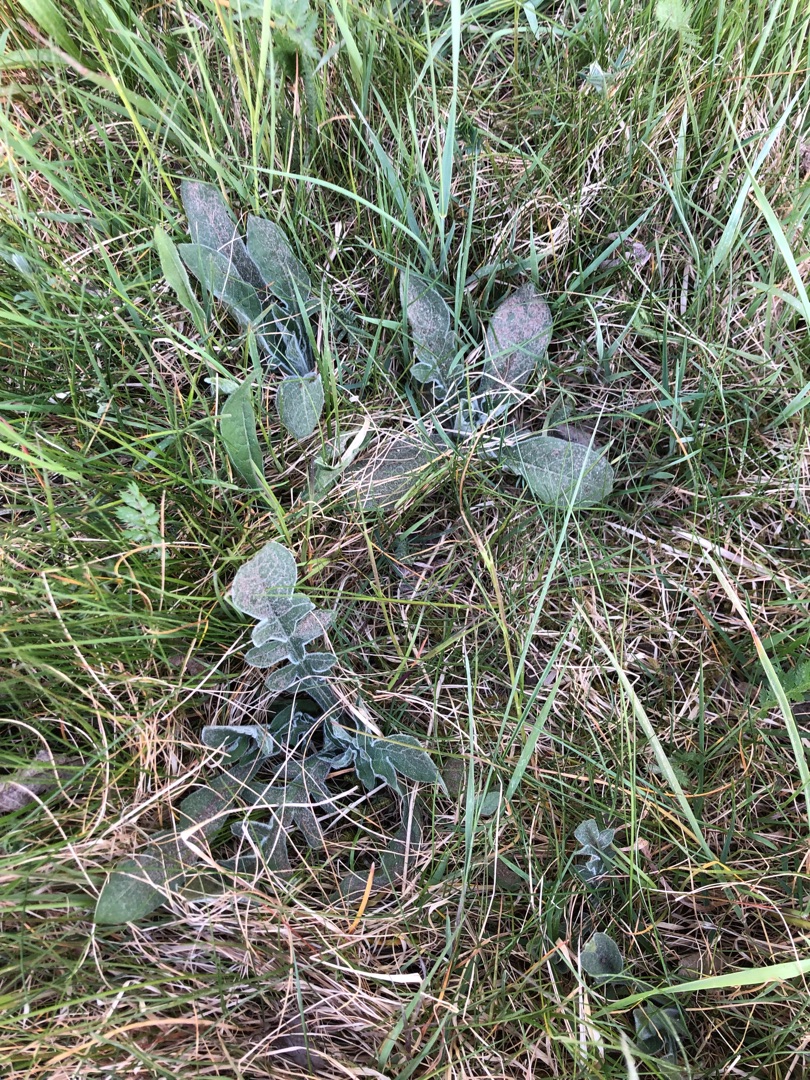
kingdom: Plantae
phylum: Tracheophyta
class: Magnoliopsida
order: Dipsacales
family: Caprifoliaceae
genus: Knautia
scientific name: Knautia arvensis
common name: Blåhat
